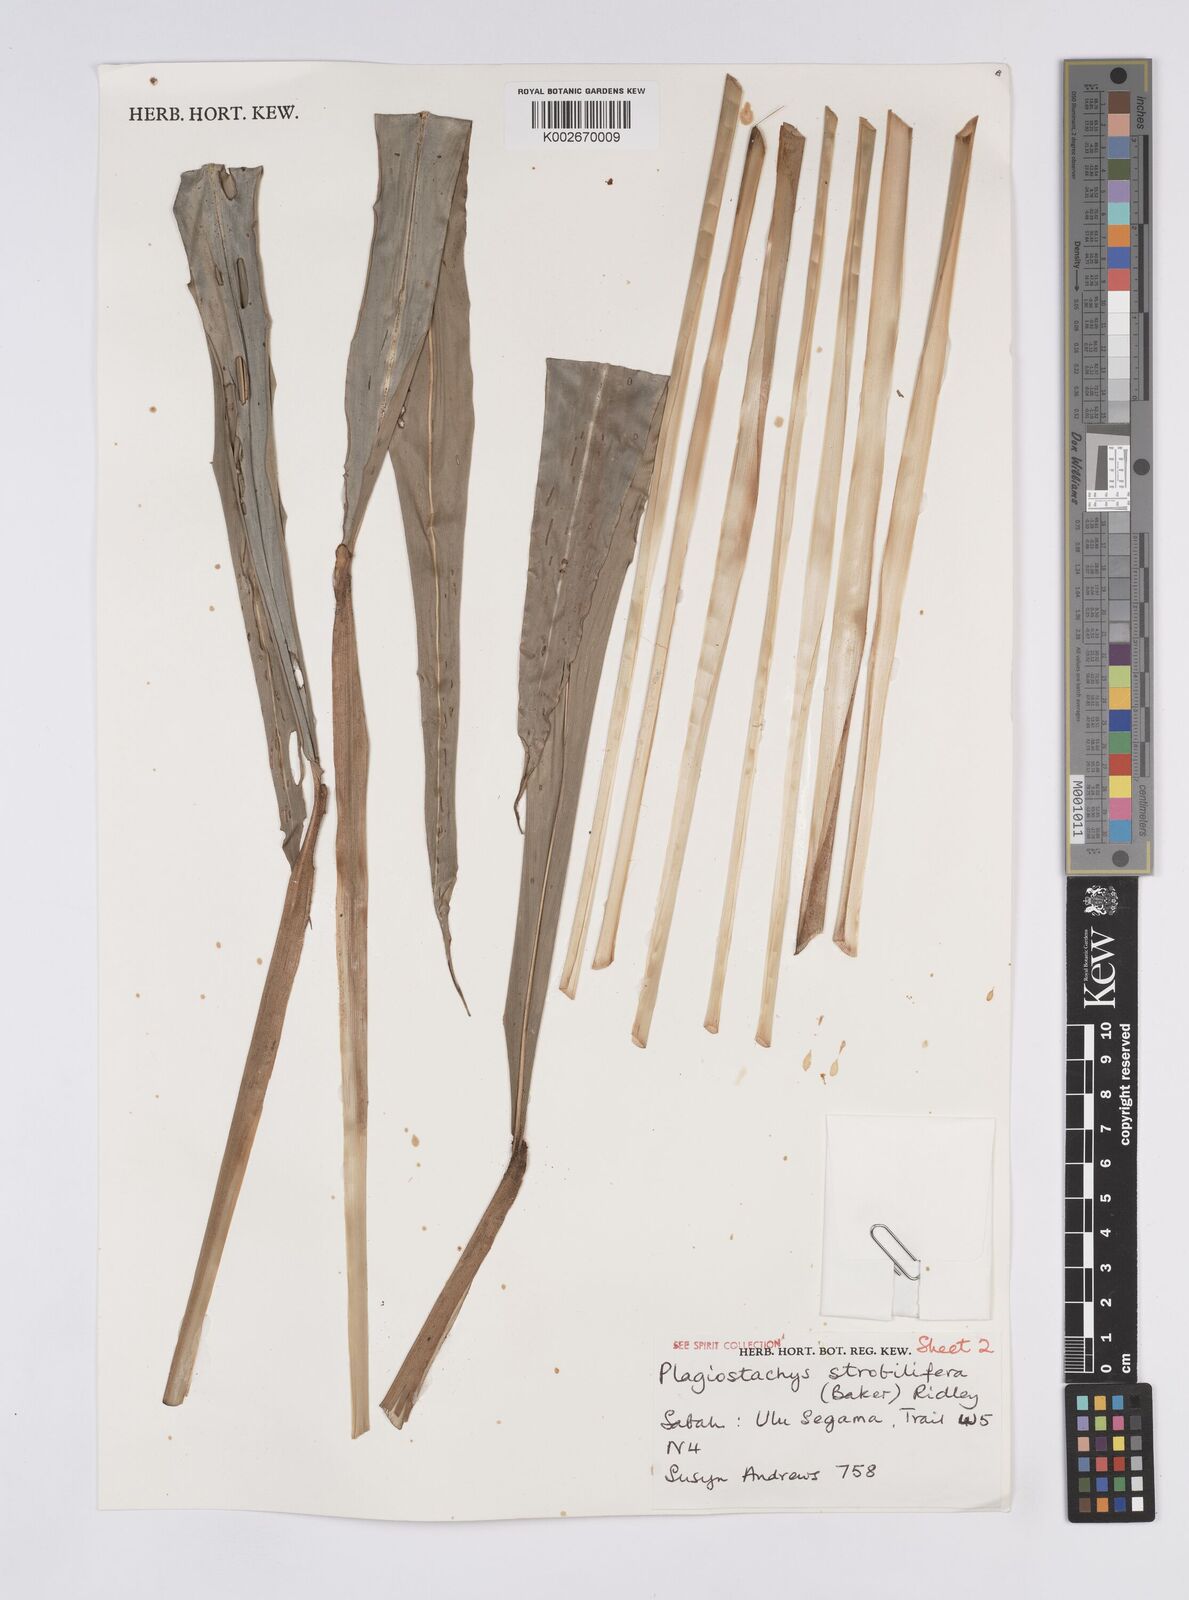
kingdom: Plantae
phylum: Tracheophyta
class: Liliopsida
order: Zingiberales
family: Zingiberaceae
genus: Plagiostachys
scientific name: Plagiostachys strobilifera
